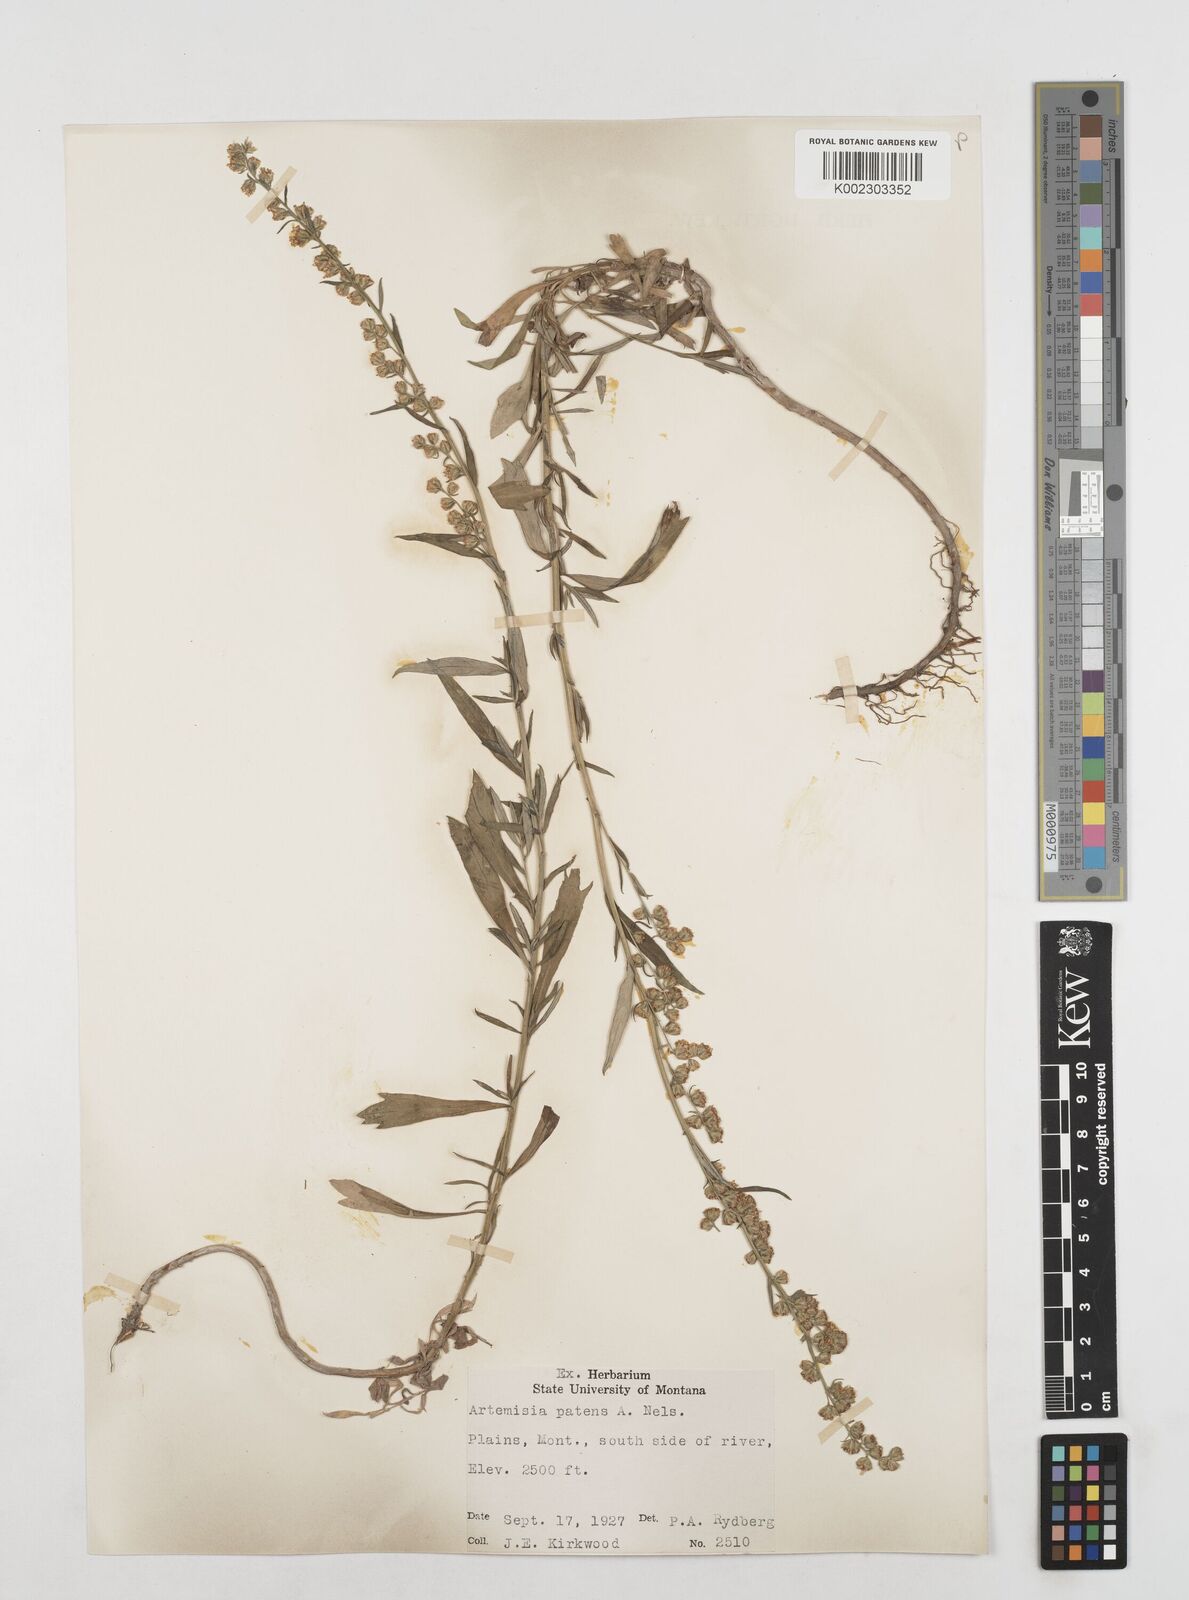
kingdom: Plantae
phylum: Tracheophyta
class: Magnoliopsida
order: Asterales
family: Asteraceae
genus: Artemisia
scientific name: Artemisia
